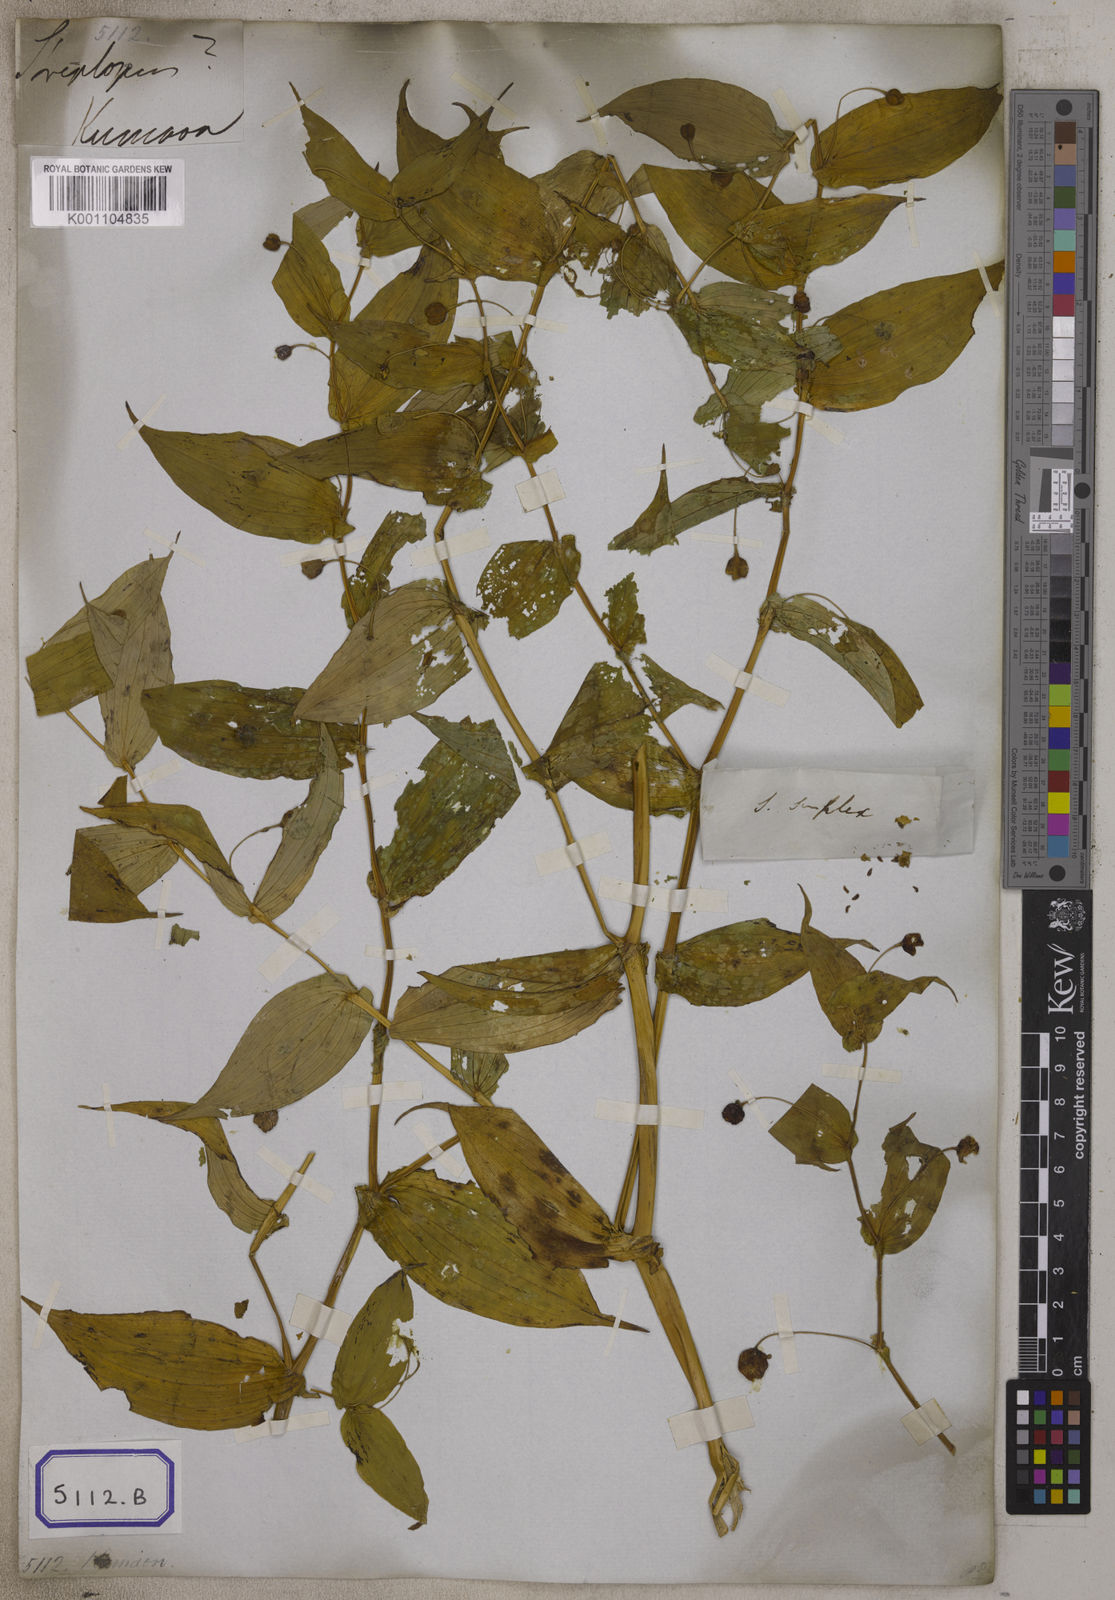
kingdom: Plantae
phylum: Tracheophyta
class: Liliopsida
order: Liliales
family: Liliaceae
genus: Streptopus
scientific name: Streptopus
